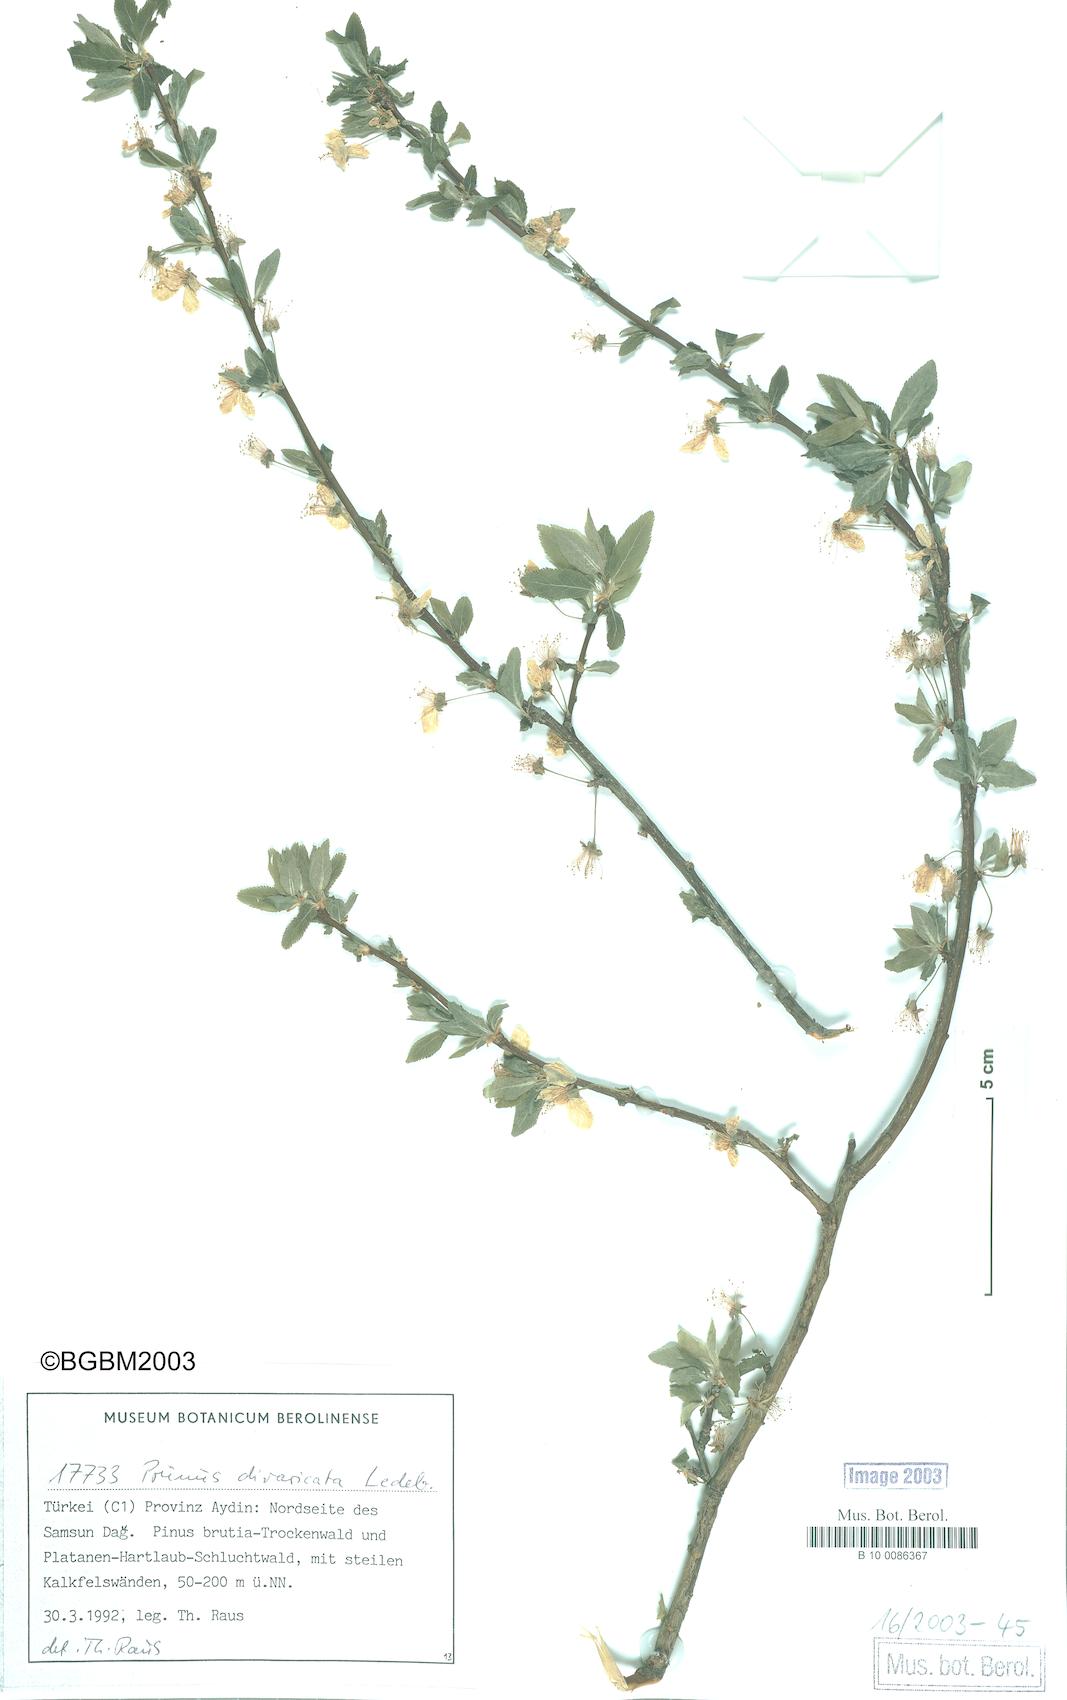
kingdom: Plantae
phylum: Tracheophyta
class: Magnoliopsida
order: Rosales
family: Rosaceae
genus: Prunus
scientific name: Prunus cerasifera
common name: Cherry plum
